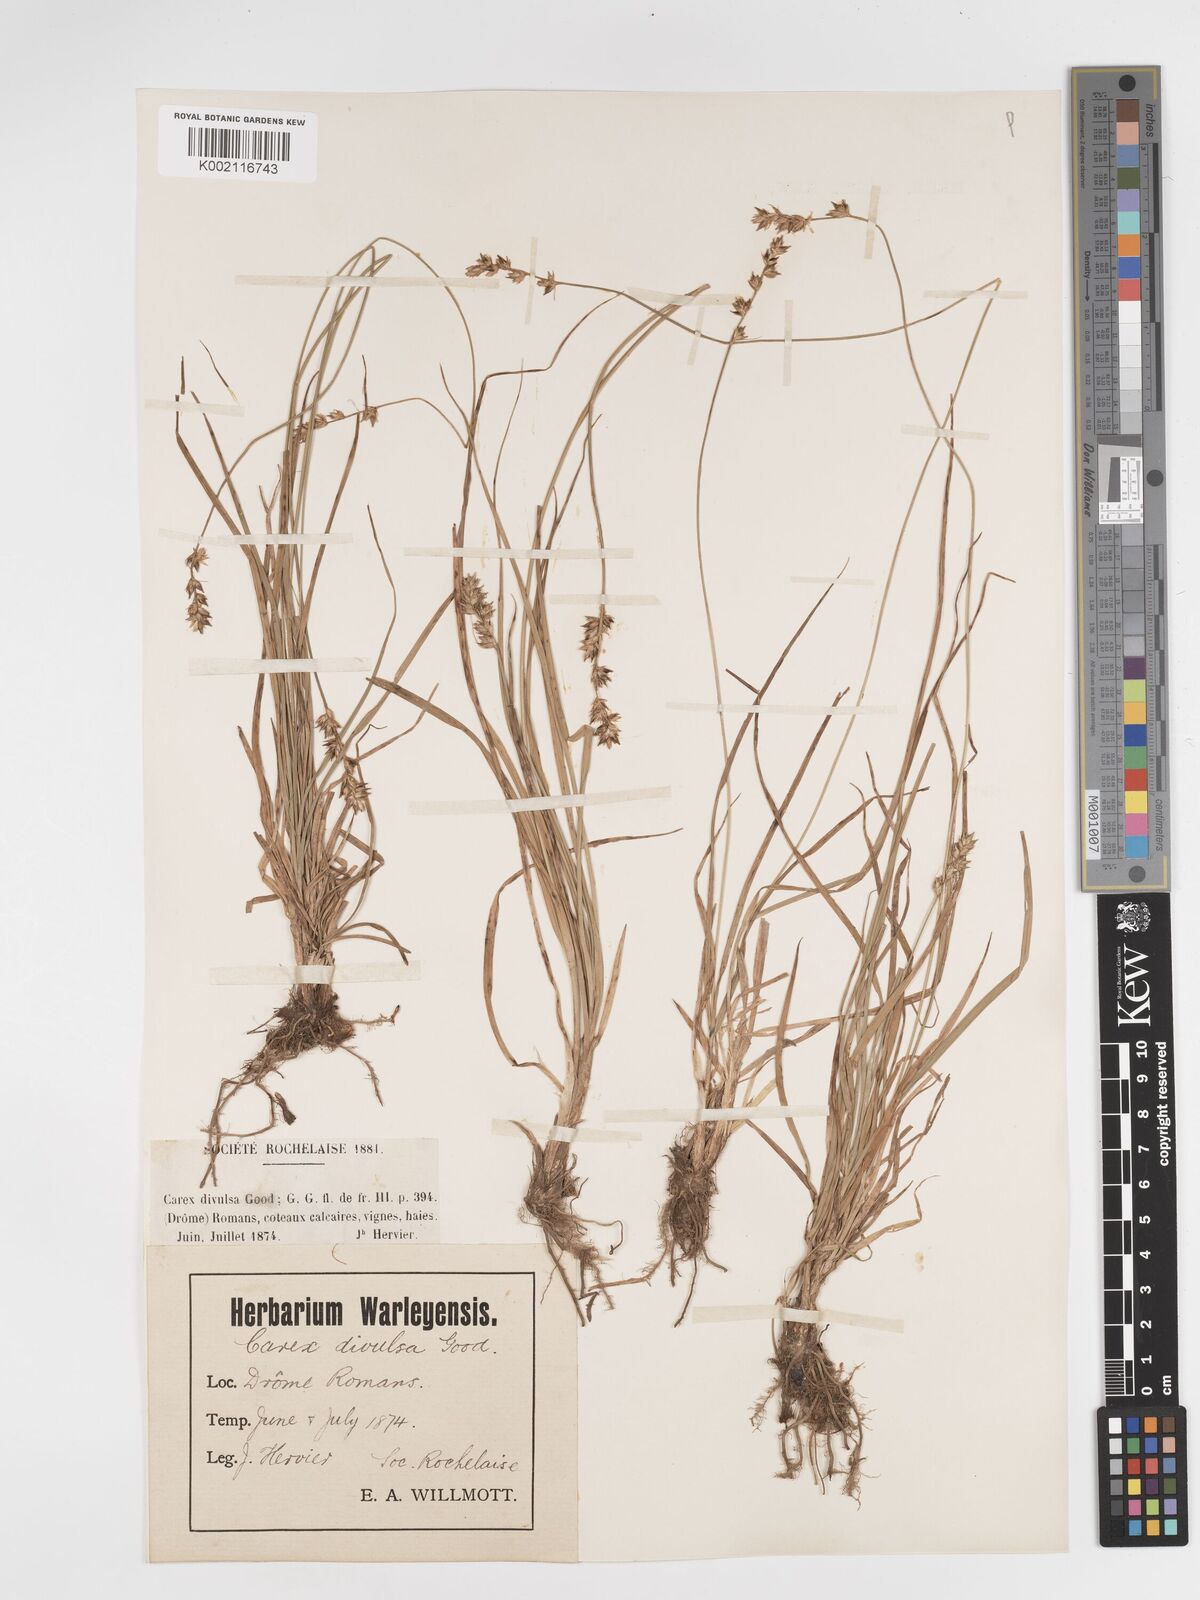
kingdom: Plantae
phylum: Tracheophyta
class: Liliopsida
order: Poales
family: Cyperaceae
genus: Carex
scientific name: Carex divulsa
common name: Grassland sedge
